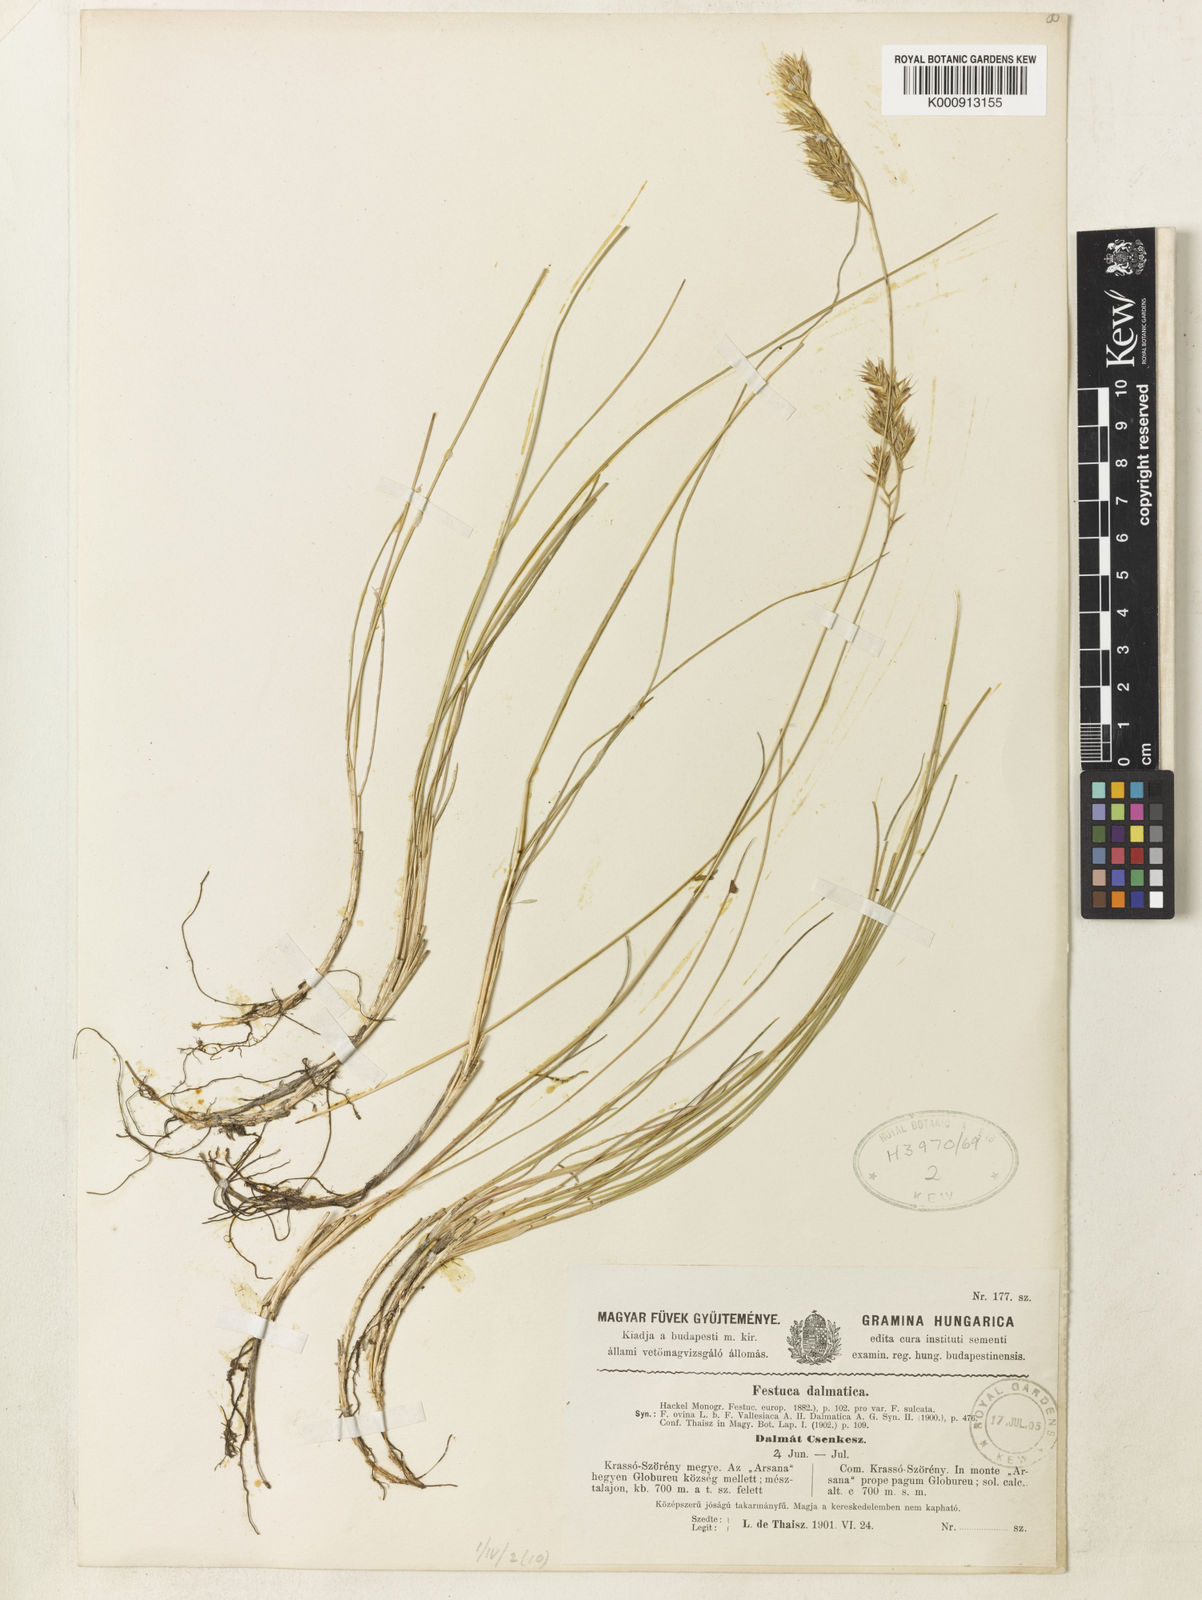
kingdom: Plantae
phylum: Tracheophyta
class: Liliopsida
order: Poales
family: Poaceae
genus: Festuca
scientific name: Festuca dalmatica
